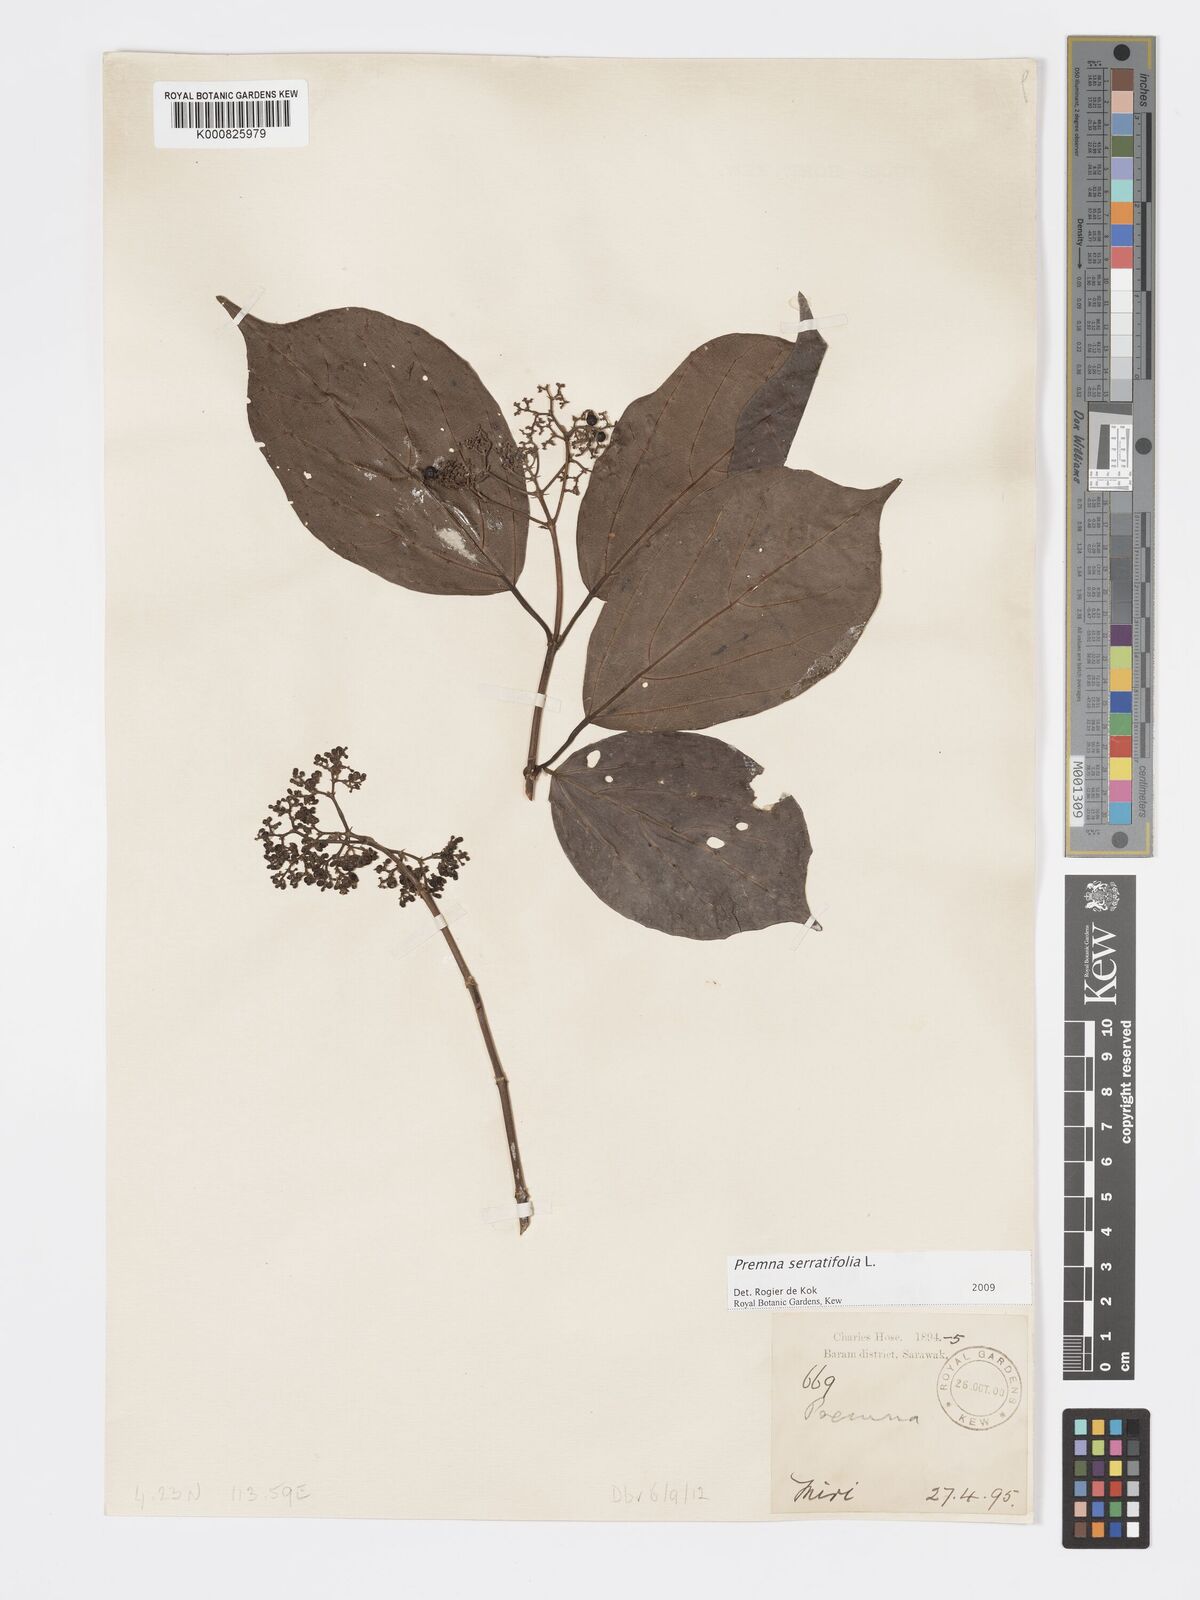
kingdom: Plantae
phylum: Tracheophyta
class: Magnoliopsida
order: Lamiales
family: Lamiaceae
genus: Premna
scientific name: Premna serratifolia
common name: Bastard guelder
